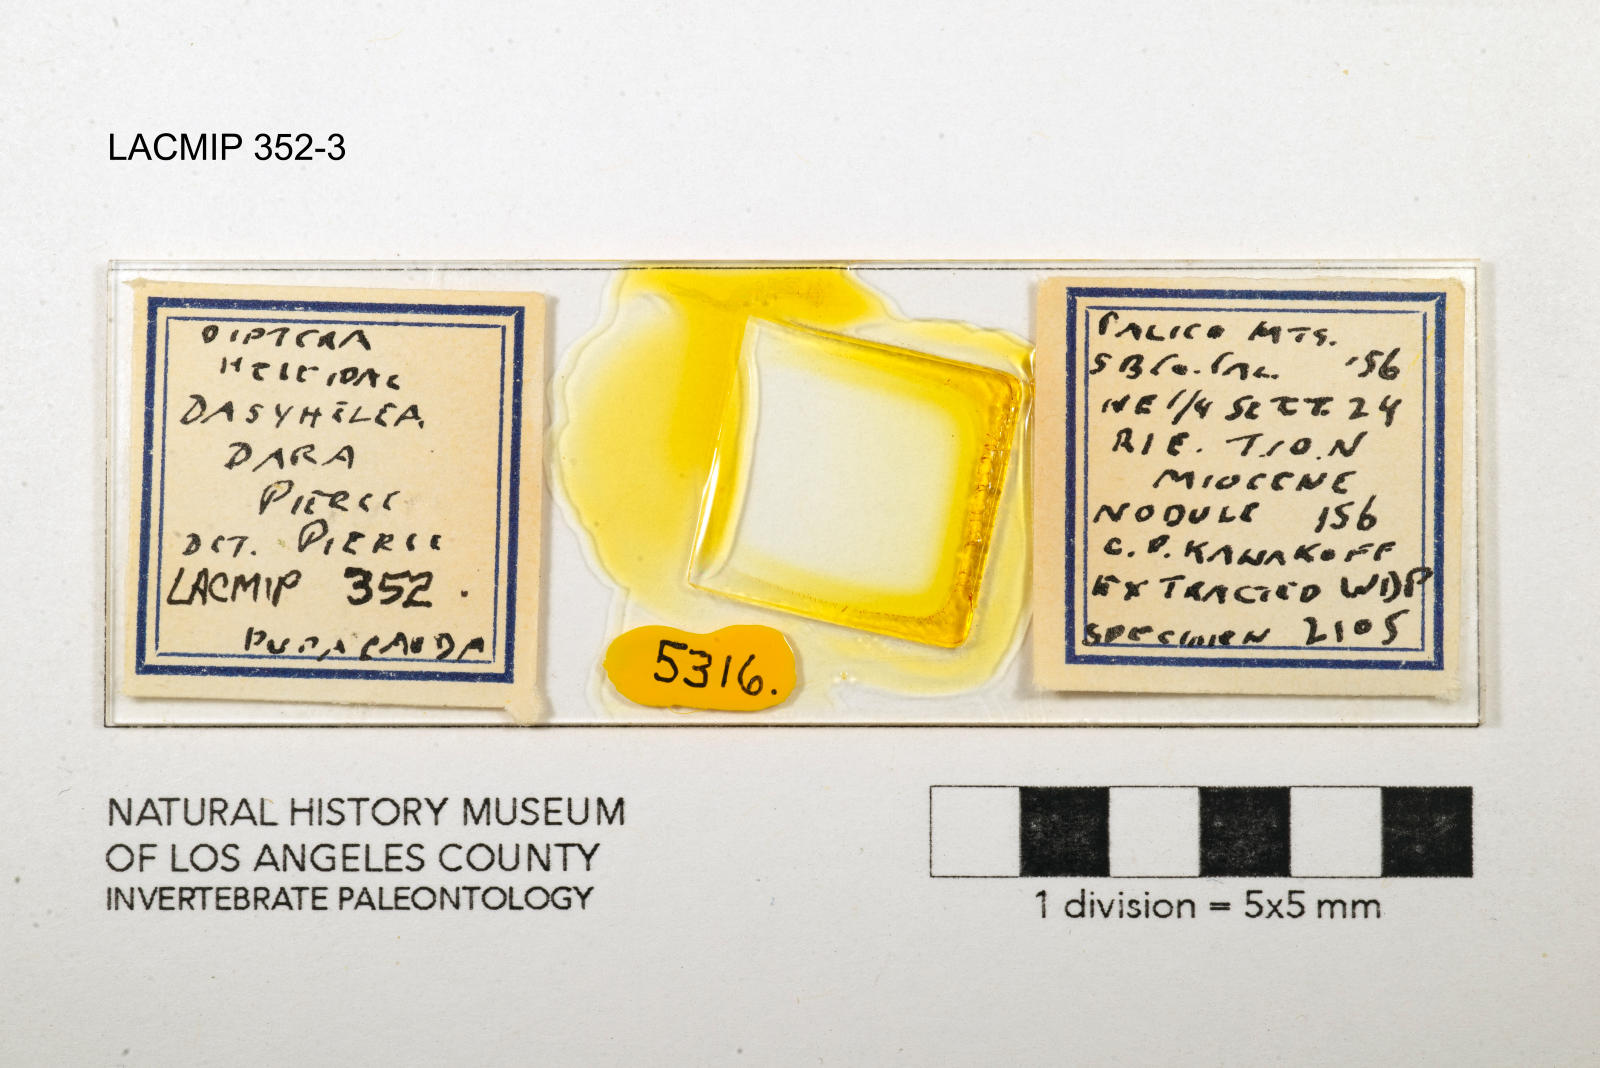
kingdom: Animalia
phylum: Arthropoda
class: Insecta
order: Diptera
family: Ceratopogonidae
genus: Dasyhelea
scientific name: Dasyhelea dara
